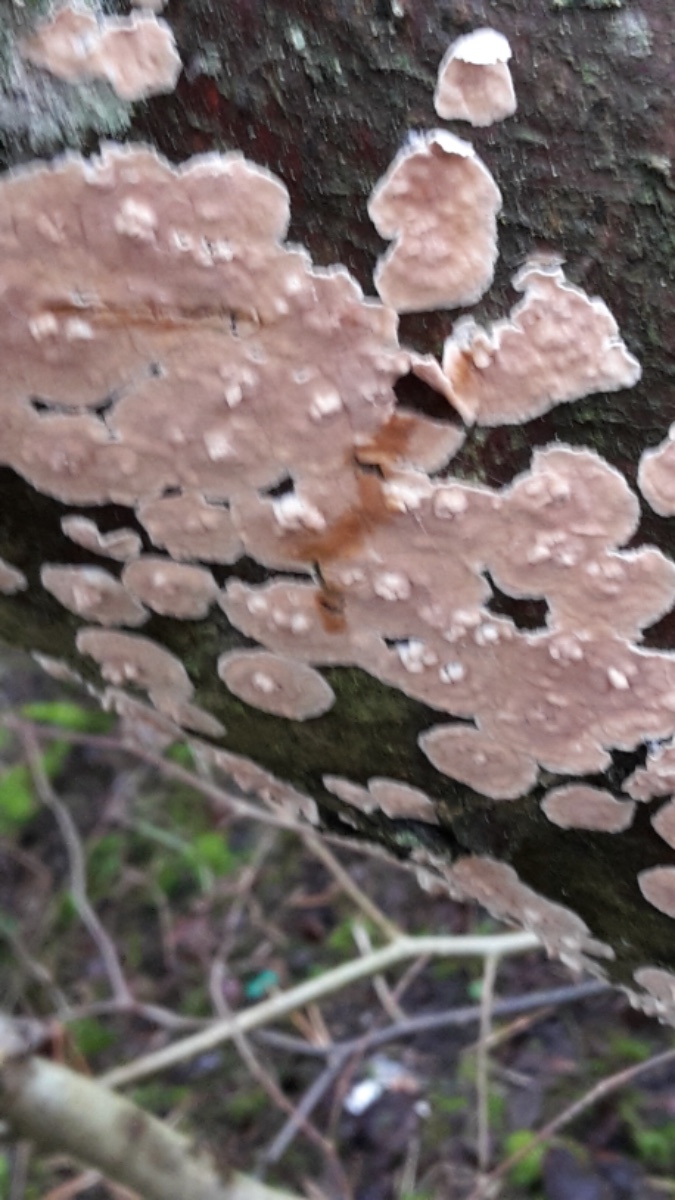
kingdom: Fungi
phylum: Basidiomycota
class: Agaricomycetes
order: Russulales
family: Stereaceae
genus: Stereum
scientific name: Stereum rugosum
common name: rynket lædersvamp
